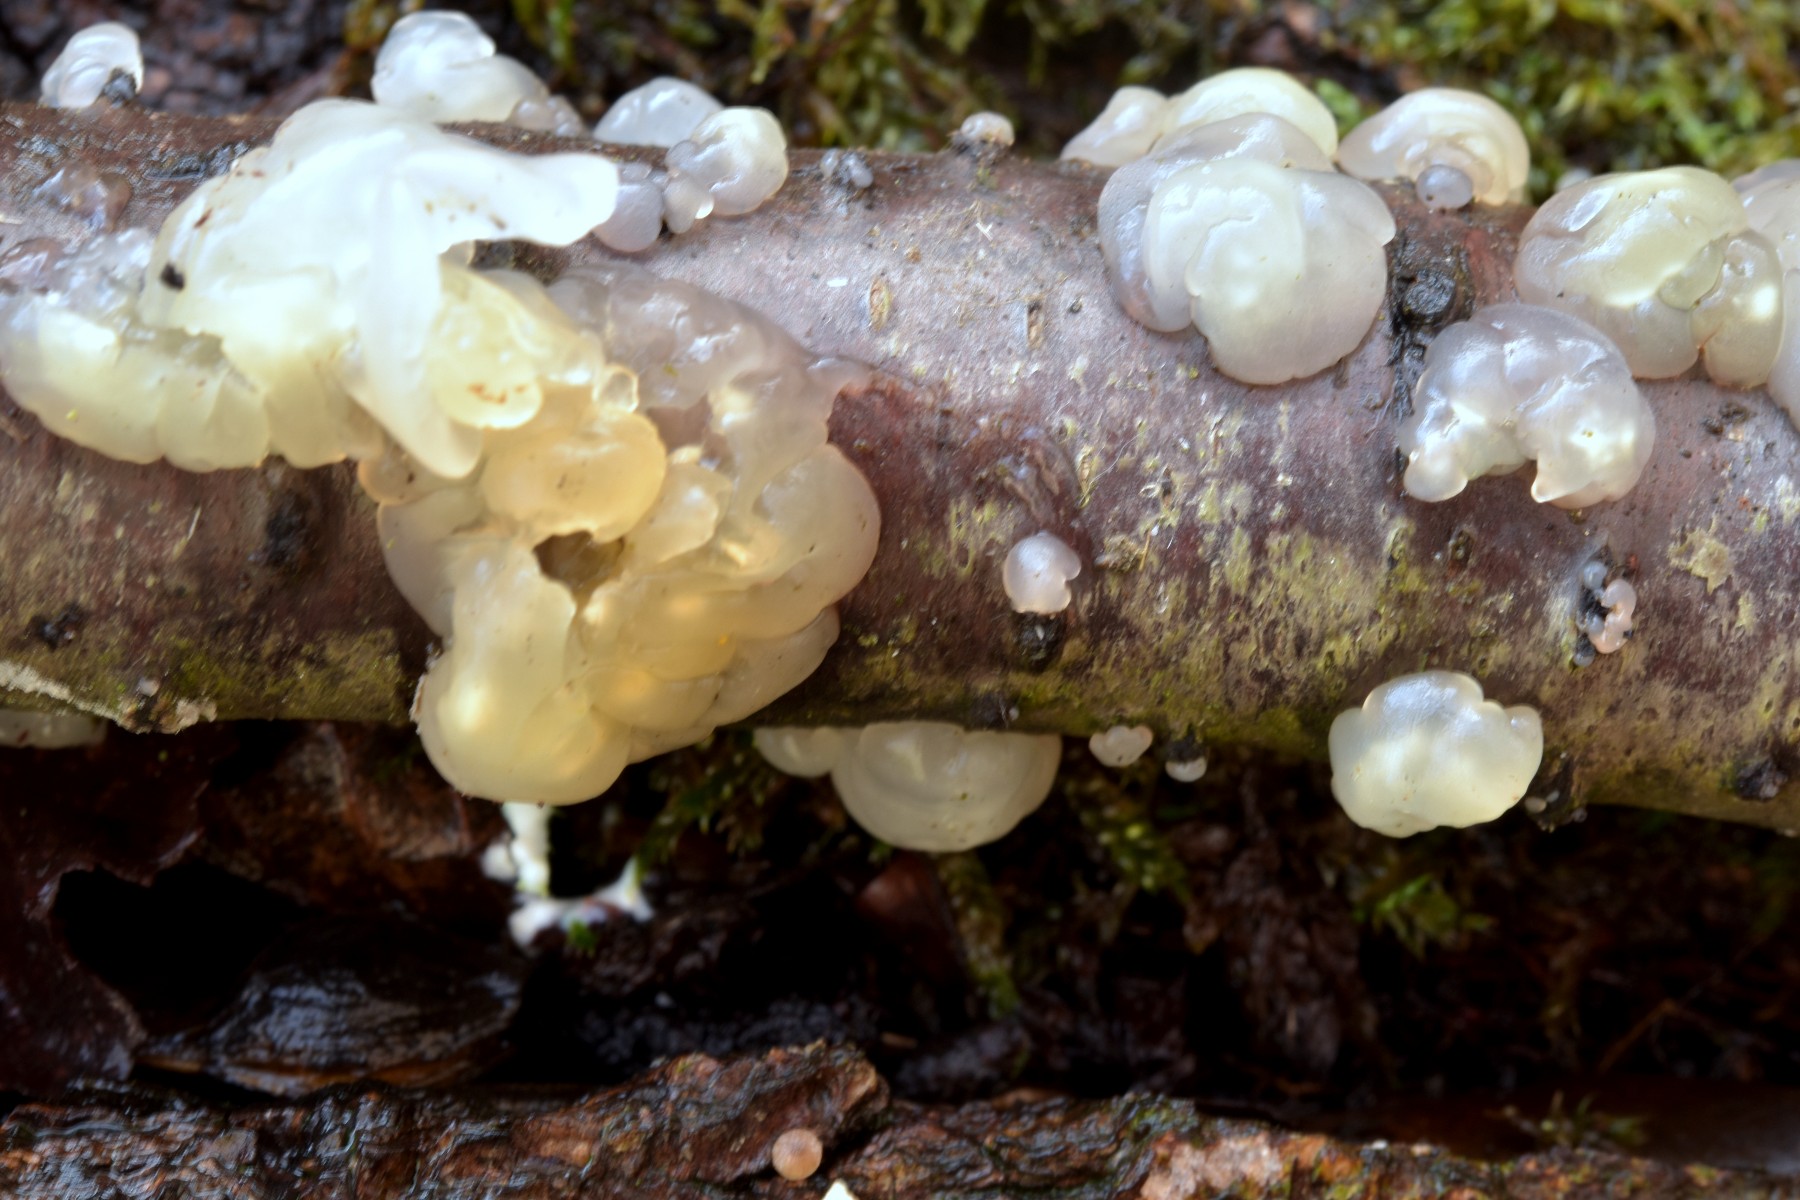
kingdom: Fungi
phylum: Basidiomycota
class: Agaricomycetes
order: Auriculariales
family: Hyaloriaceae
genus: Myxarium
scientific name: Myxarium nucleatum
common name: klar bævretop
